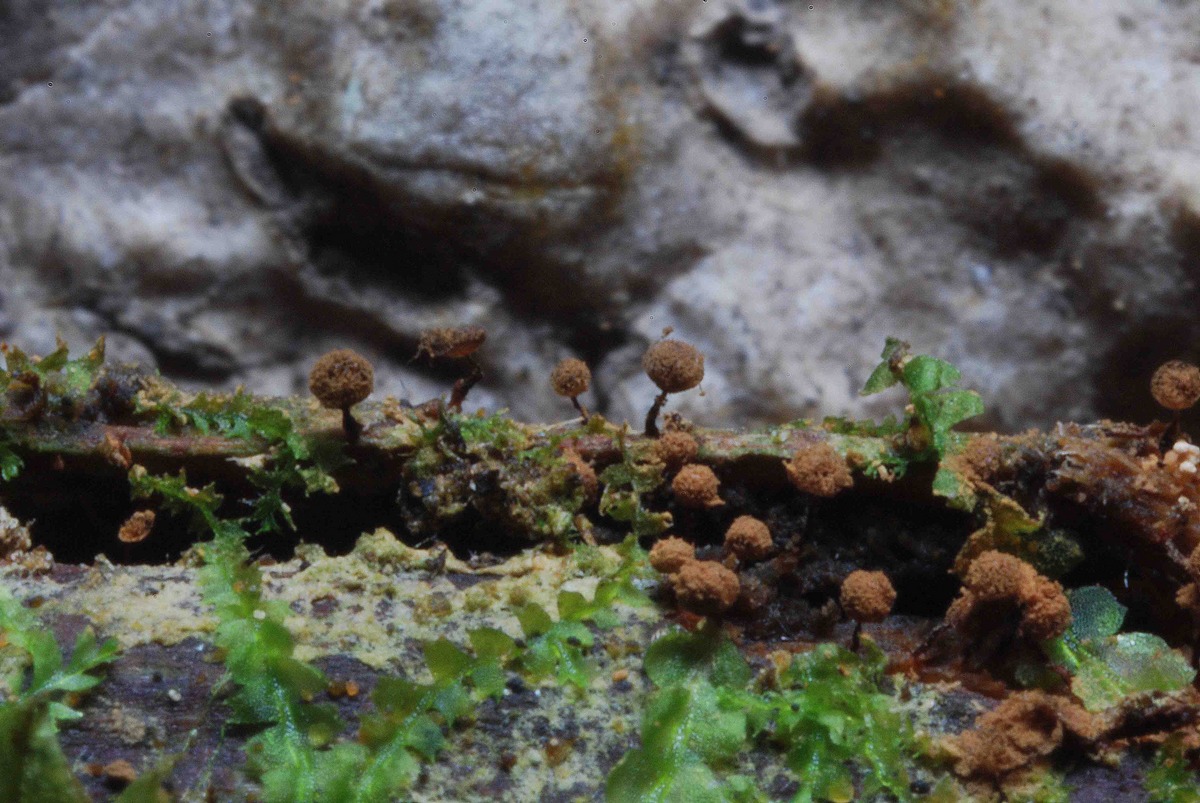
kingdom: Protozoa
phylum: Mycetozoa
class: Myxomycetes
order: Cribrariales
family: Cribrariaceae
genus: Cribraria
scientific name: Cribraria vulgaris
